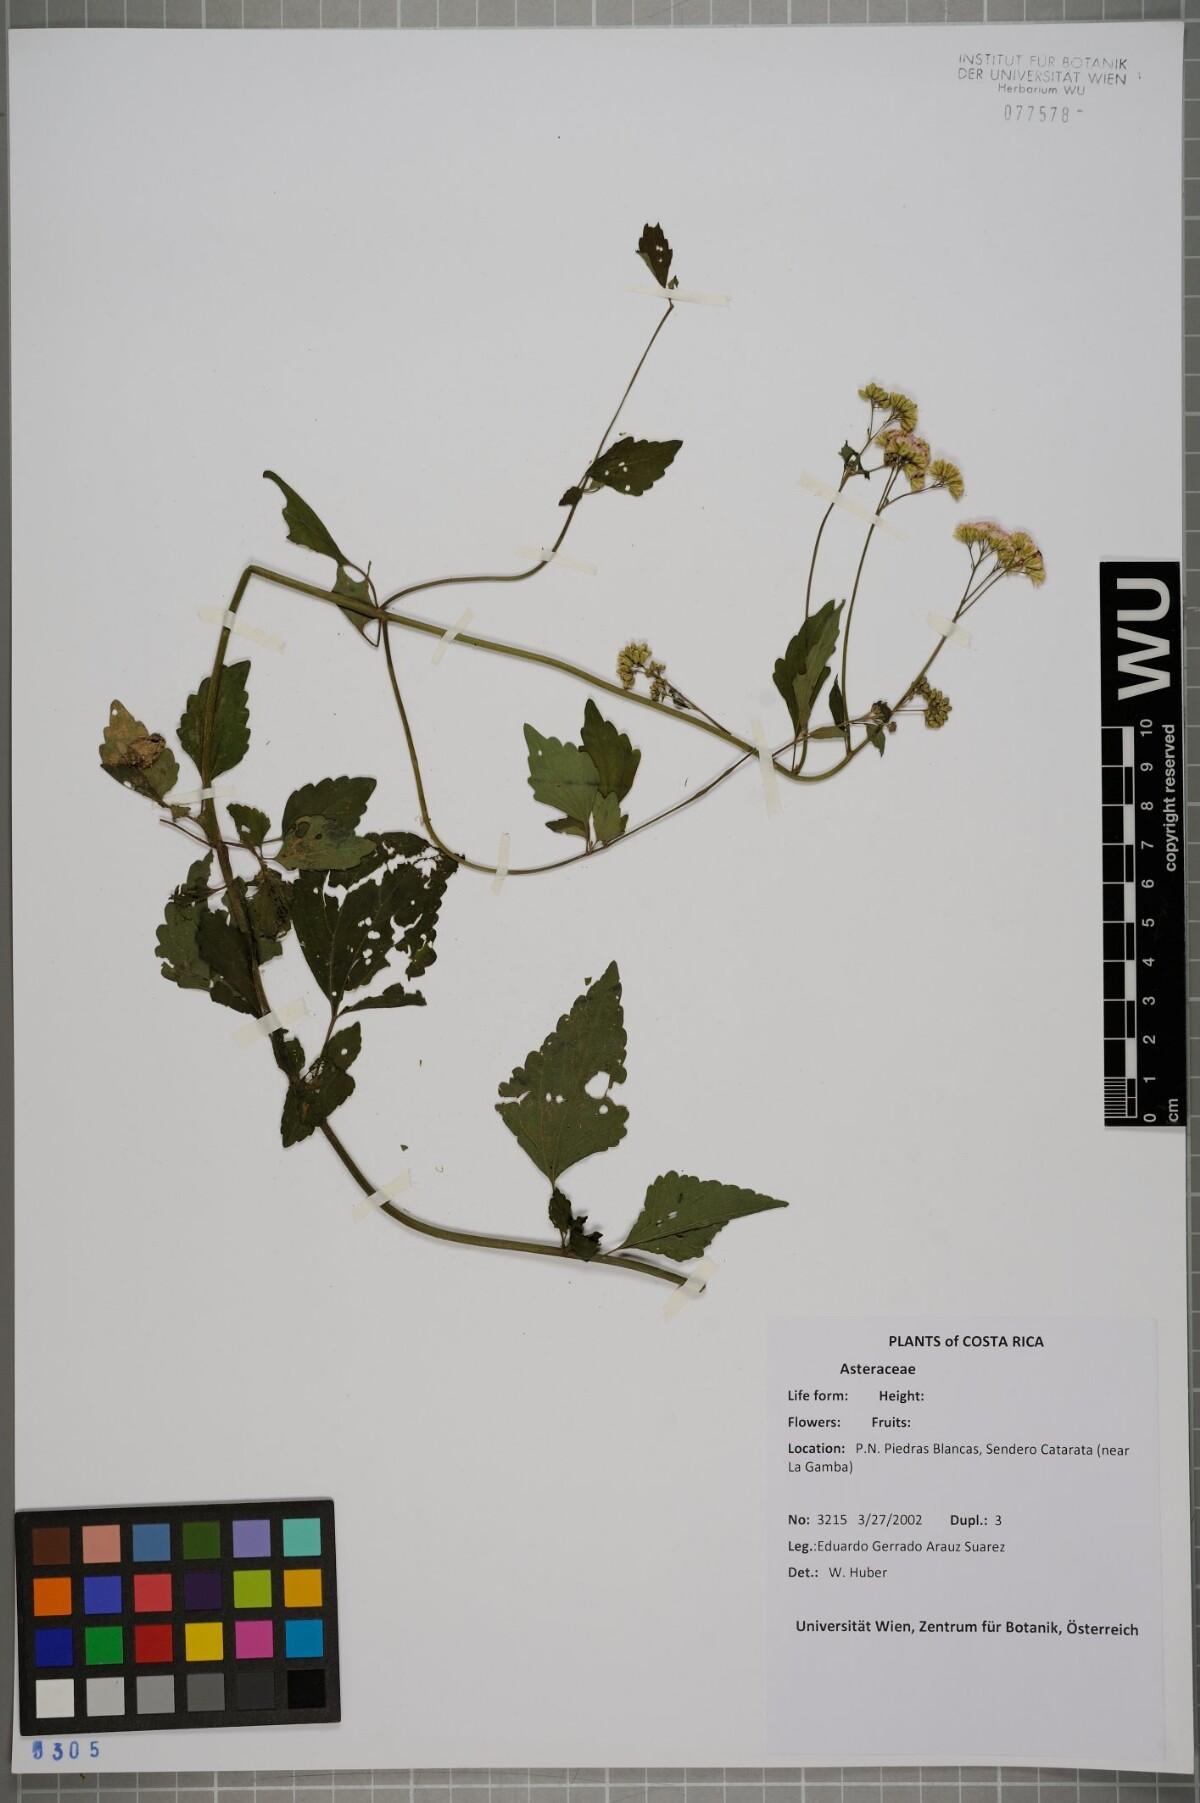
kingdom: Plantae
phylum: Tracheophyta
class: Magnoliopsida
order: Asterales
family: Asteraceae
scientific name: Asteraceae
